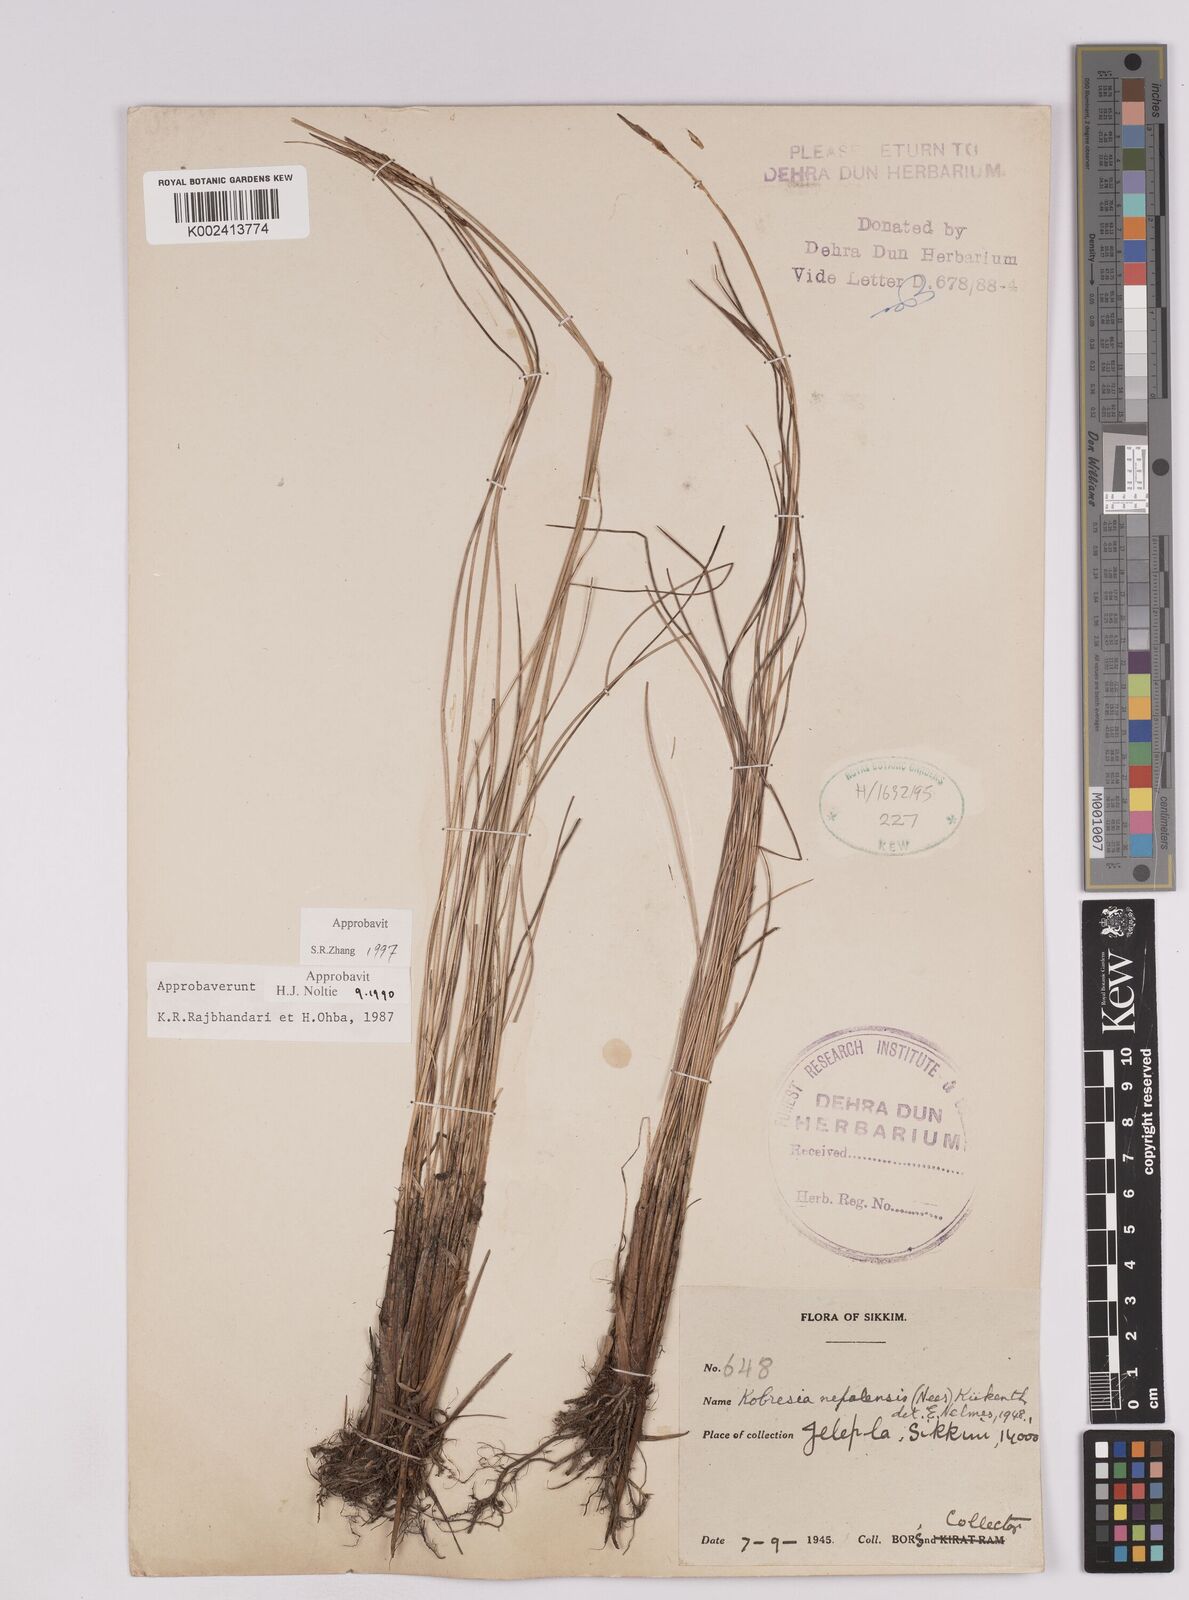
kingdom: Plantae
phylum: Tracheophyta
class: Liliopsida
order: Poales
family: Cyperaceae
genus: Carex
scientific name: Carex unciniiformis
